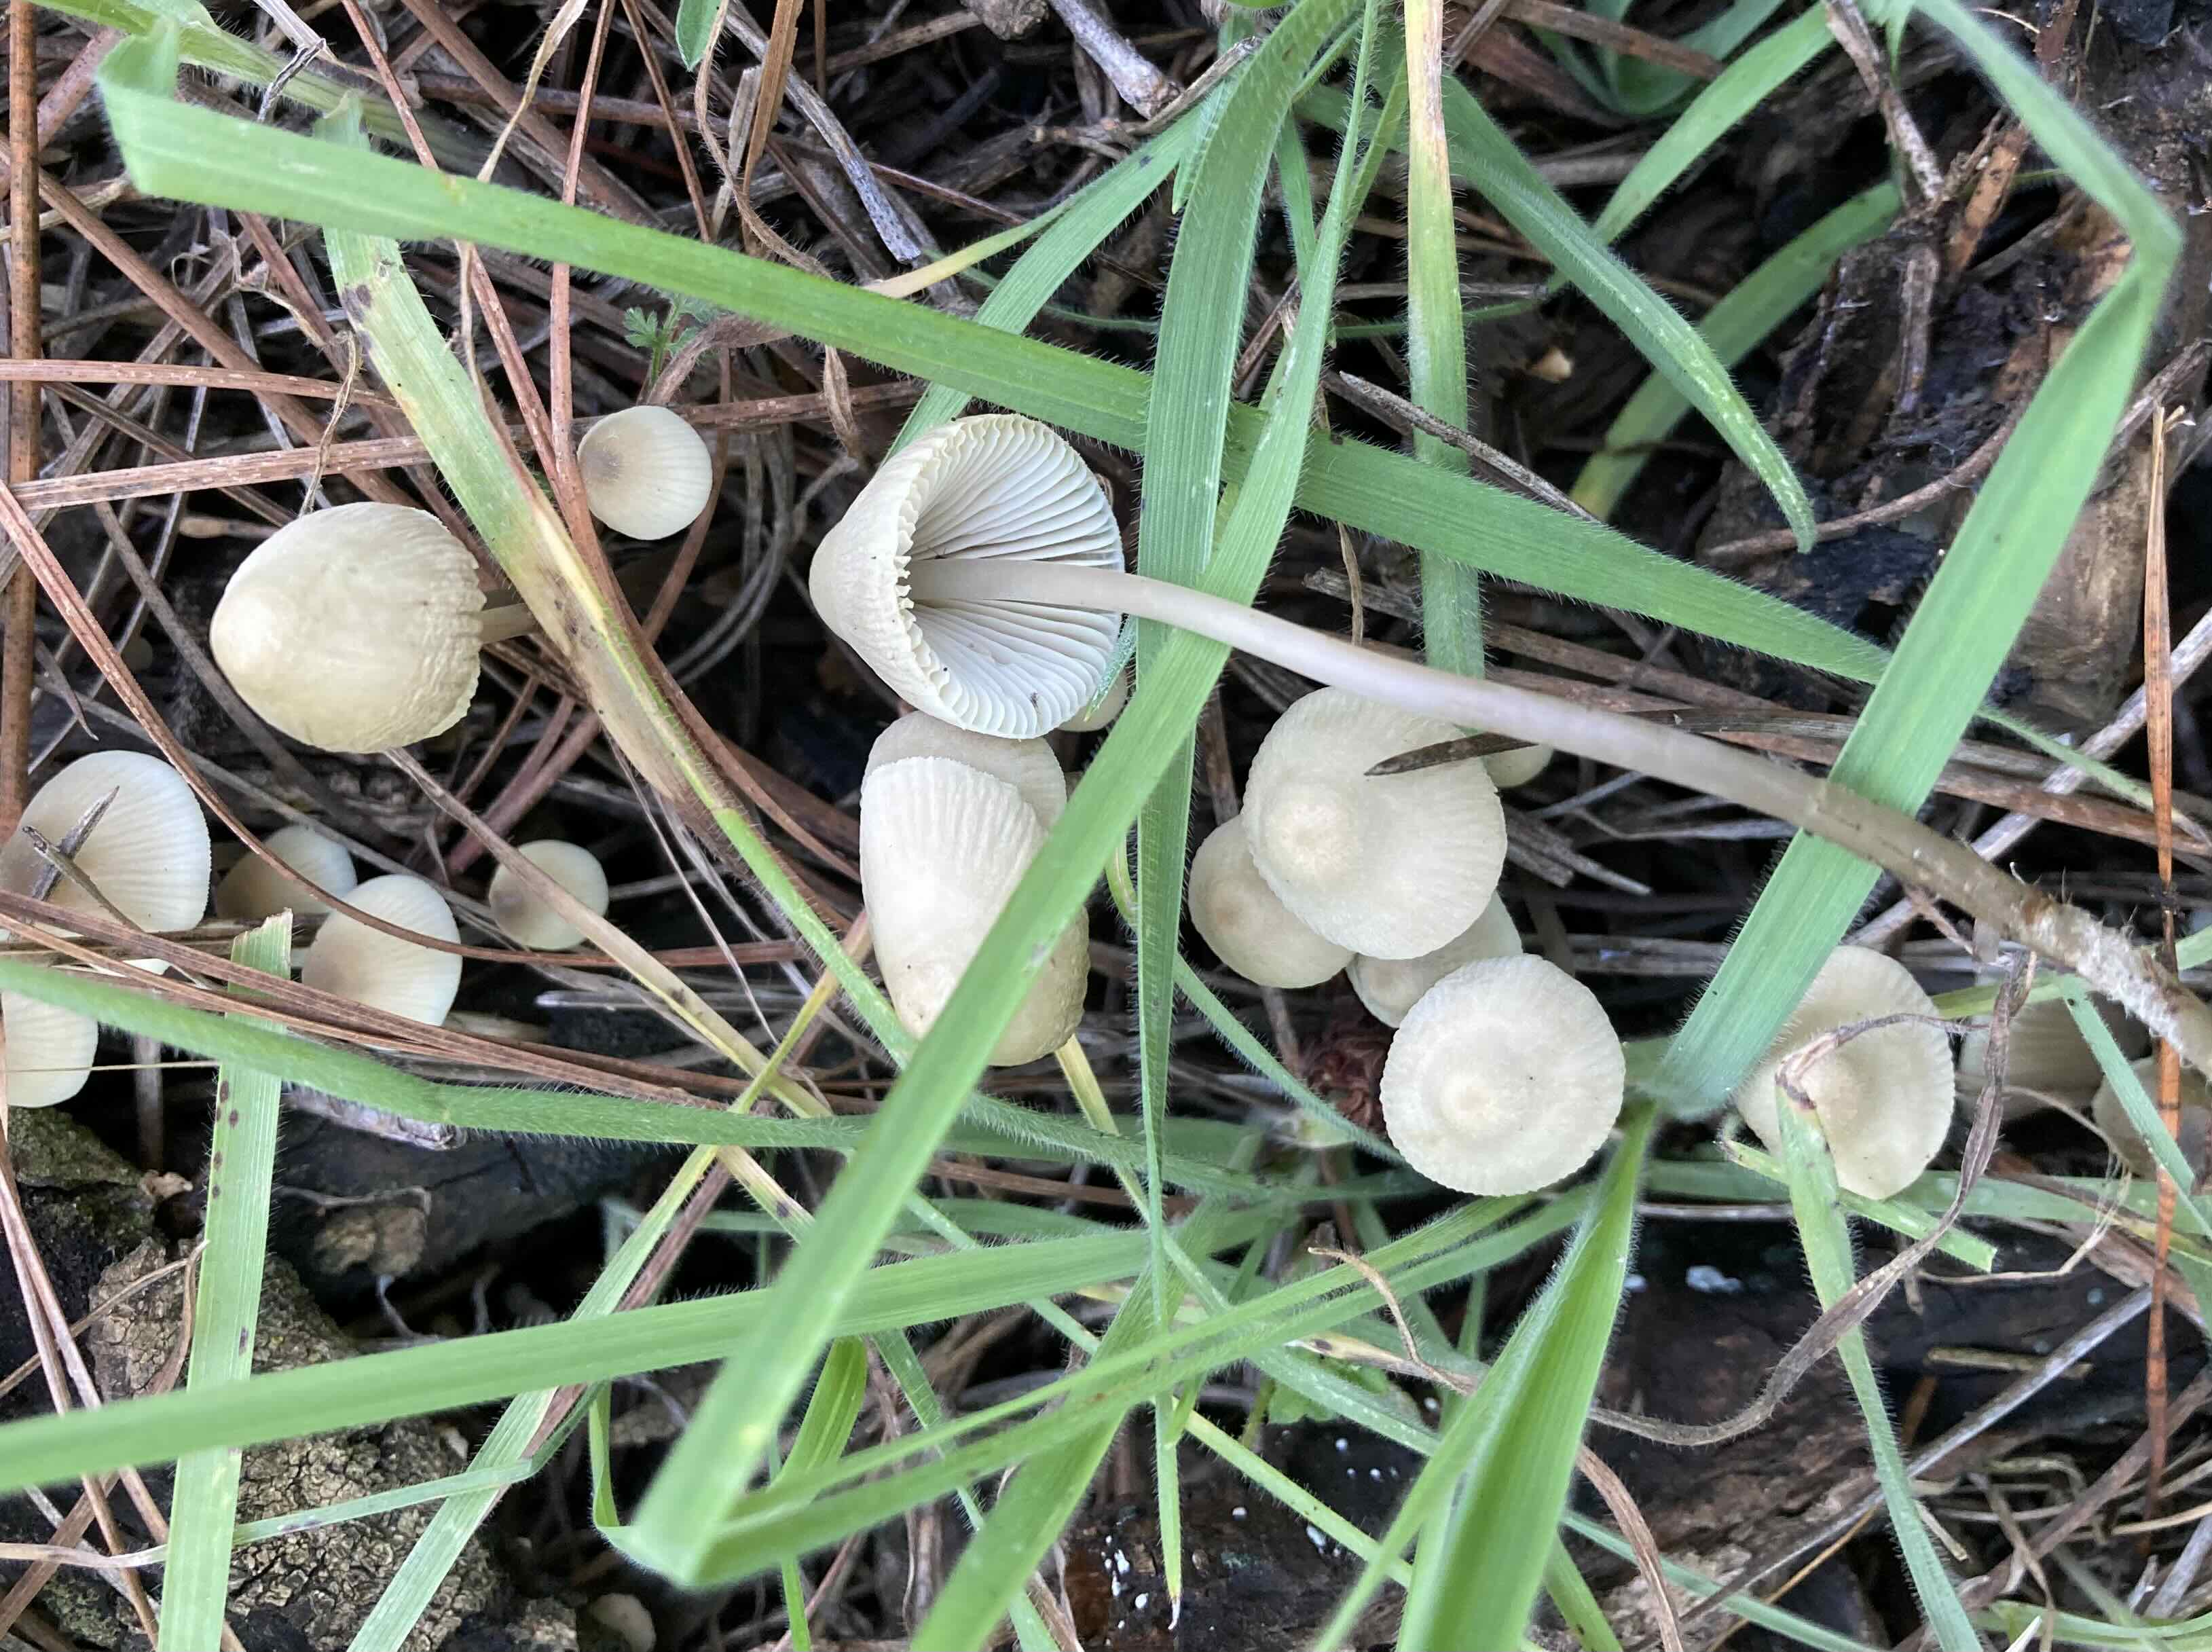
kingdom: Fungi
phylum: Basidiomycota
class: Agaricomycetes
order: Agaricales
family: Mycenaceae
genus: Mycena
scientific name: Mycena
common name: huesvamp
